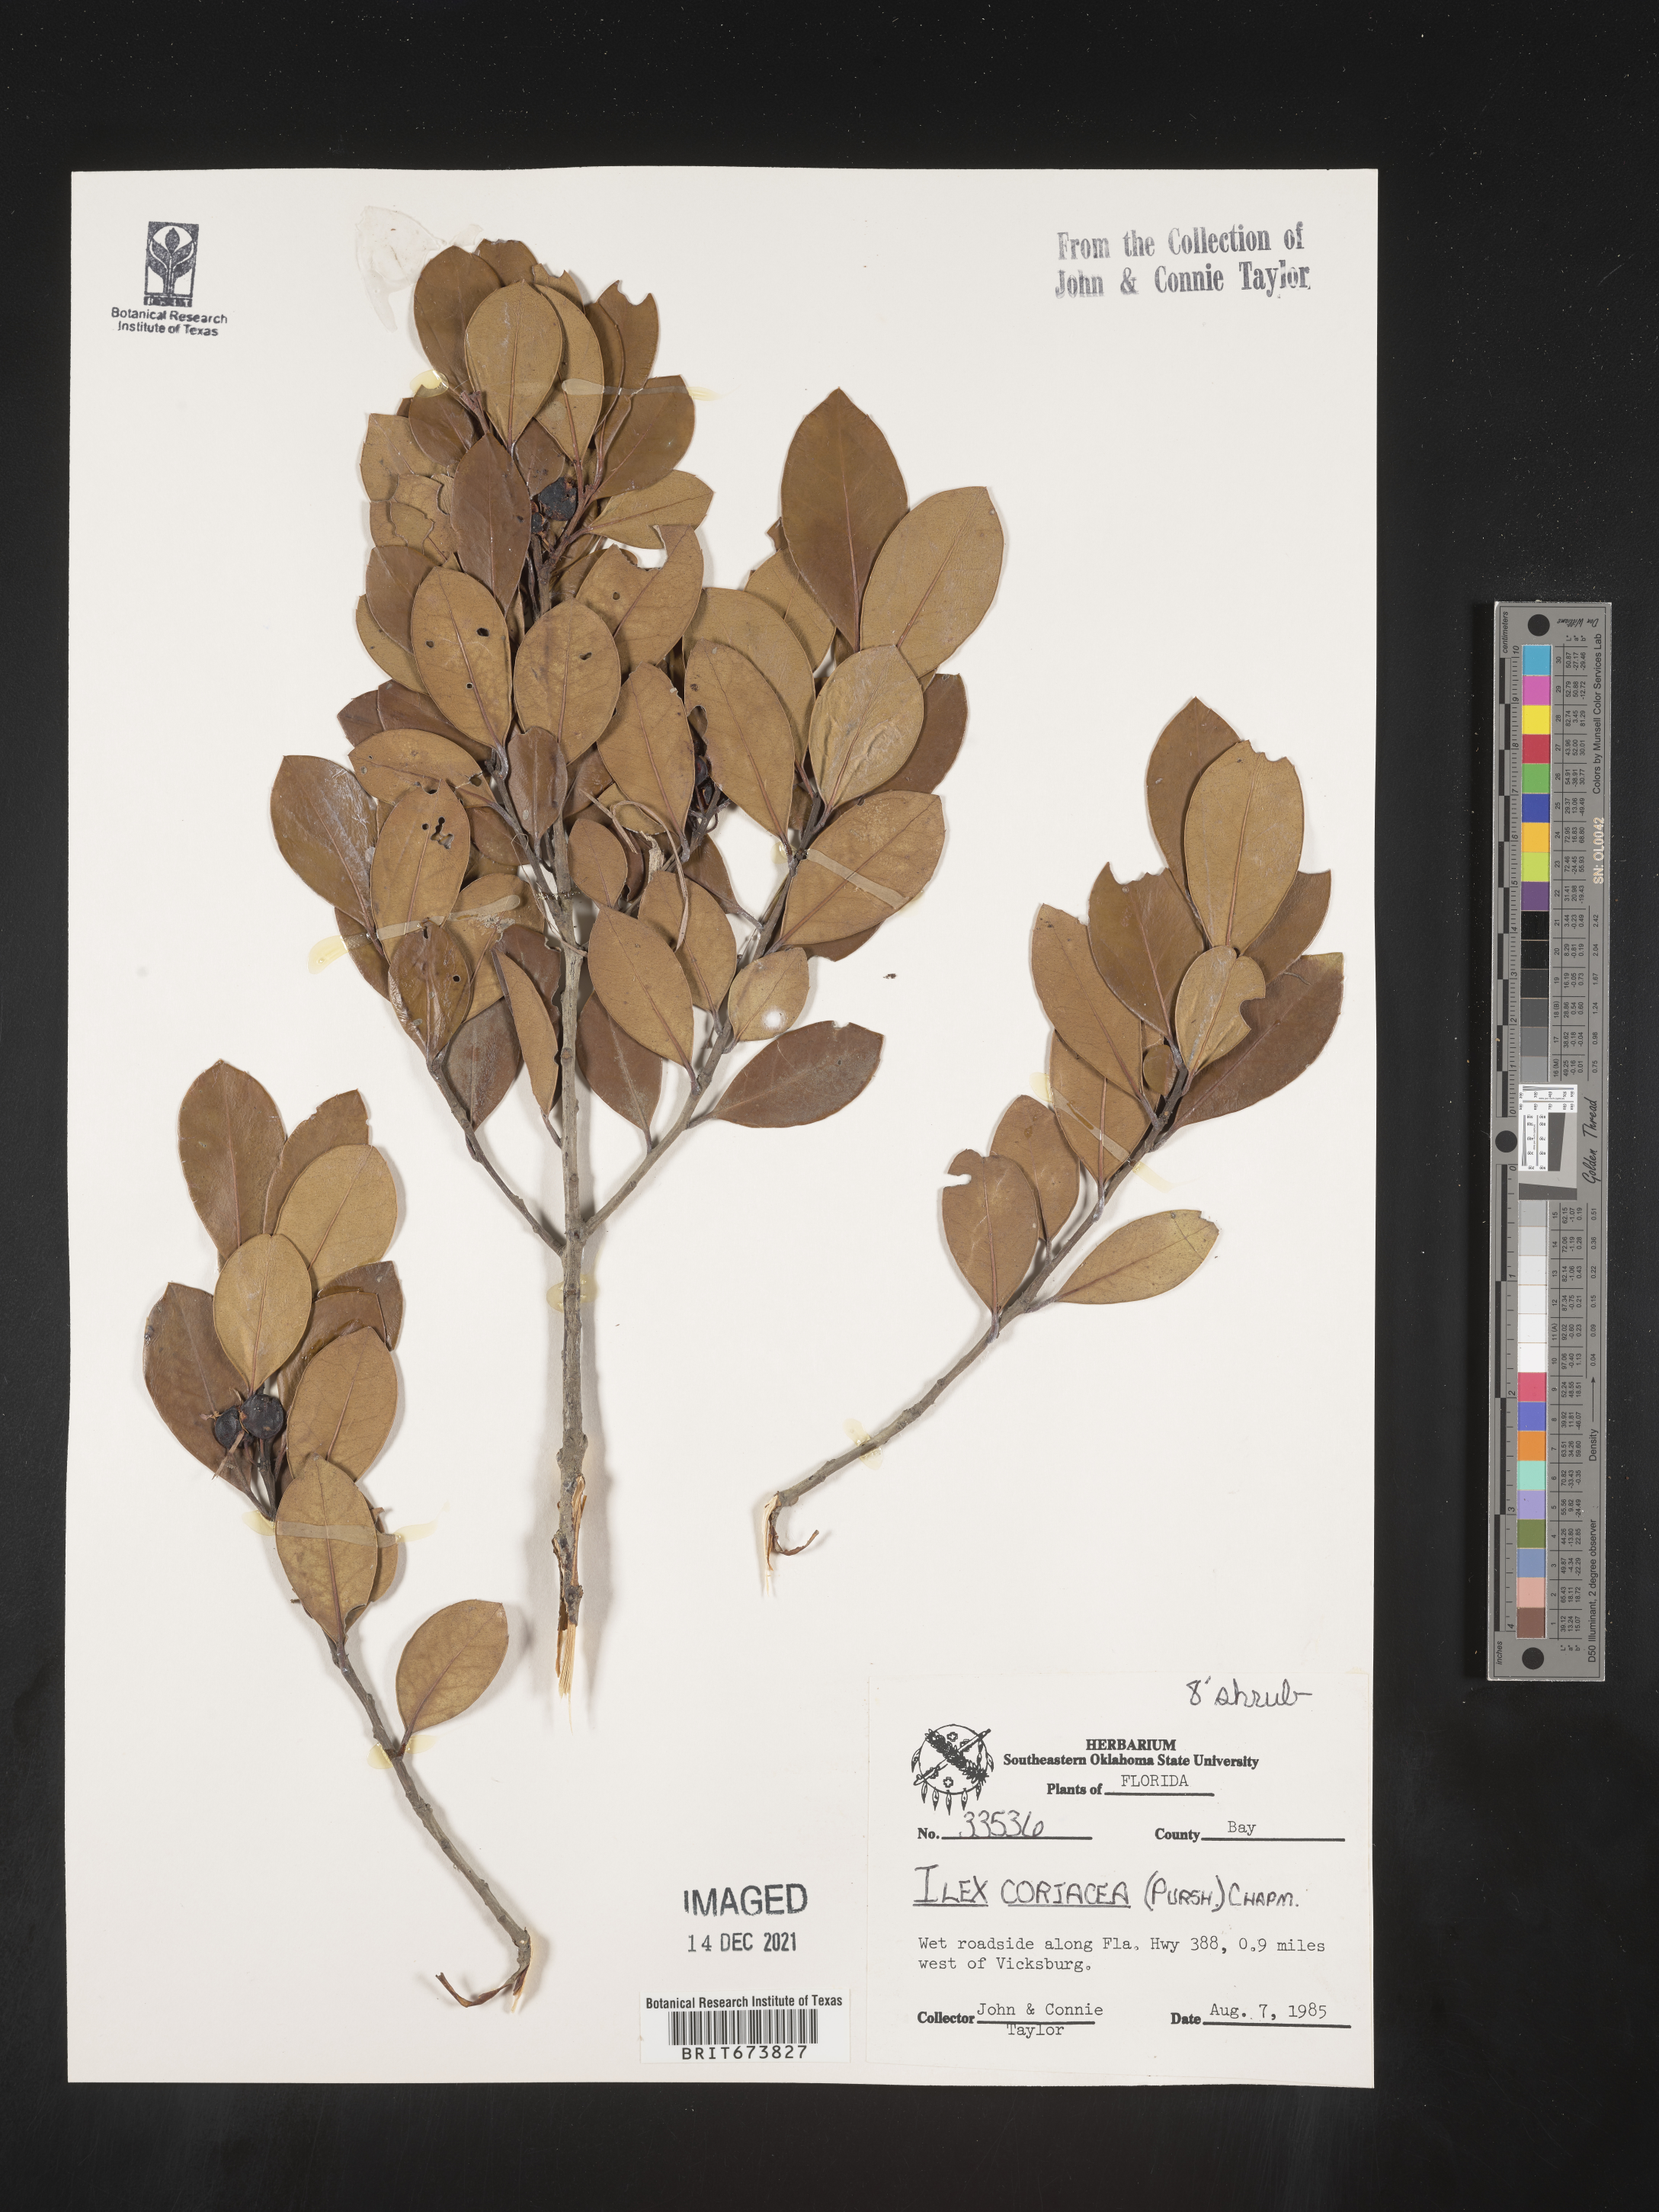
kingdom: Plantae
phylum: Tracheophyta
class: Magnoliopsida
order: Aquifoliales
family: Aquifoliaceae
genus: Ilex
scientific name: Ilex coriacea
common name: Sweet gallberry
